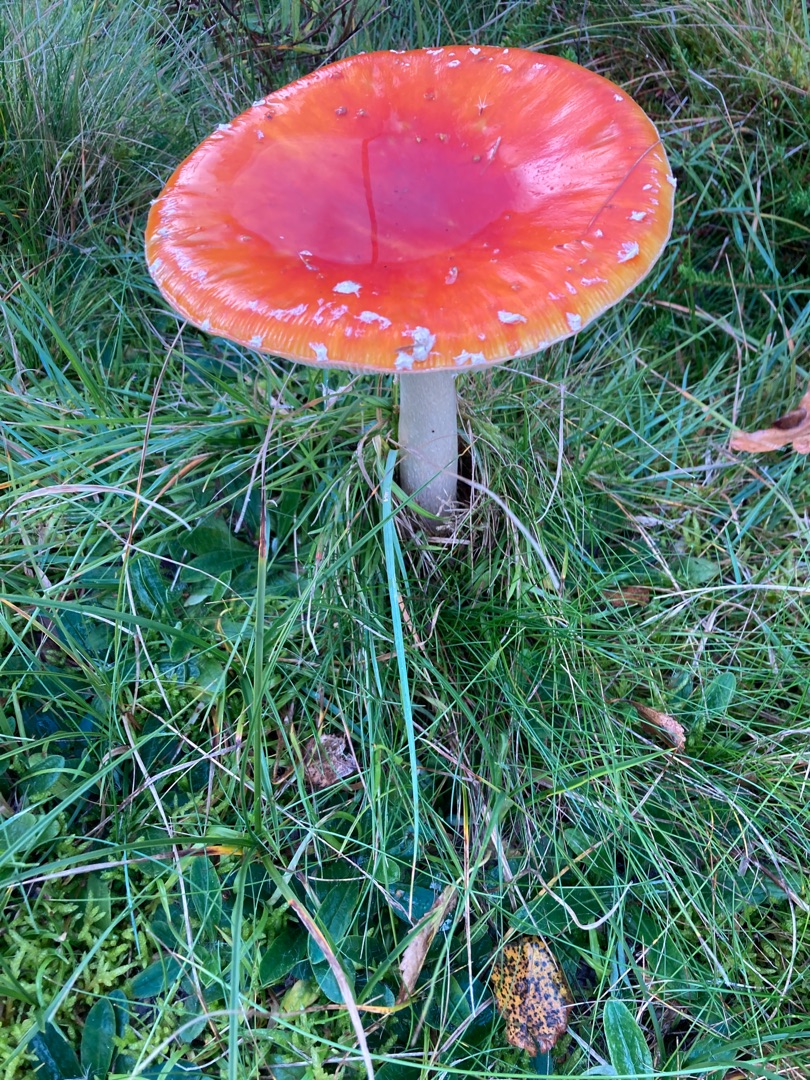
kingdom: Fungi
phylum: Basidiomycota
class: Agaricomycetes
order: Agaricales
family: Amanitaceae
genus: Amanita
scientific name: Amanita muscaria
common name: Rød fluesvamp
